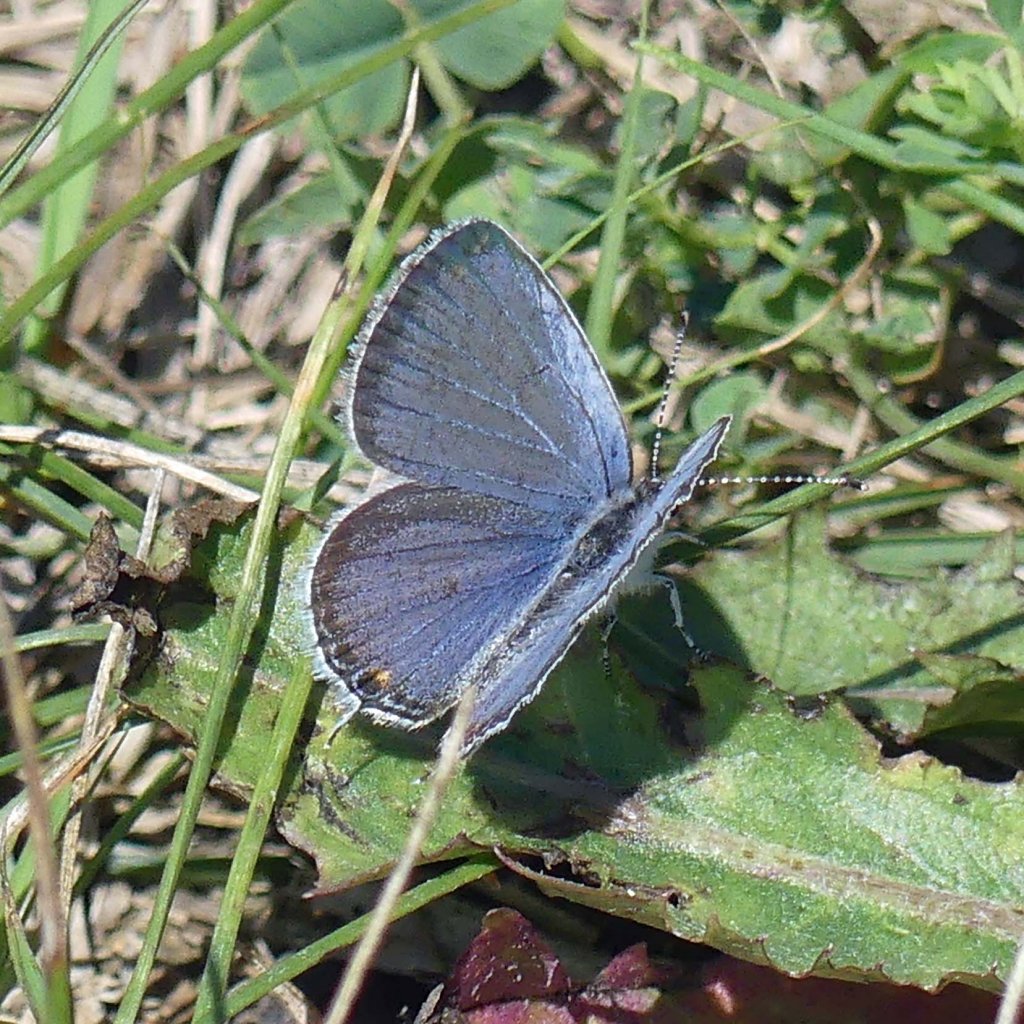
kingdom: Animalia
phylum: Arthropoda
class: Insecta
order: Lepidoptera
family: Lycaenidae
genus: Elkalyce
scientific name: Elkalyce comyntas
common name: Eastern Tailed-Blue
